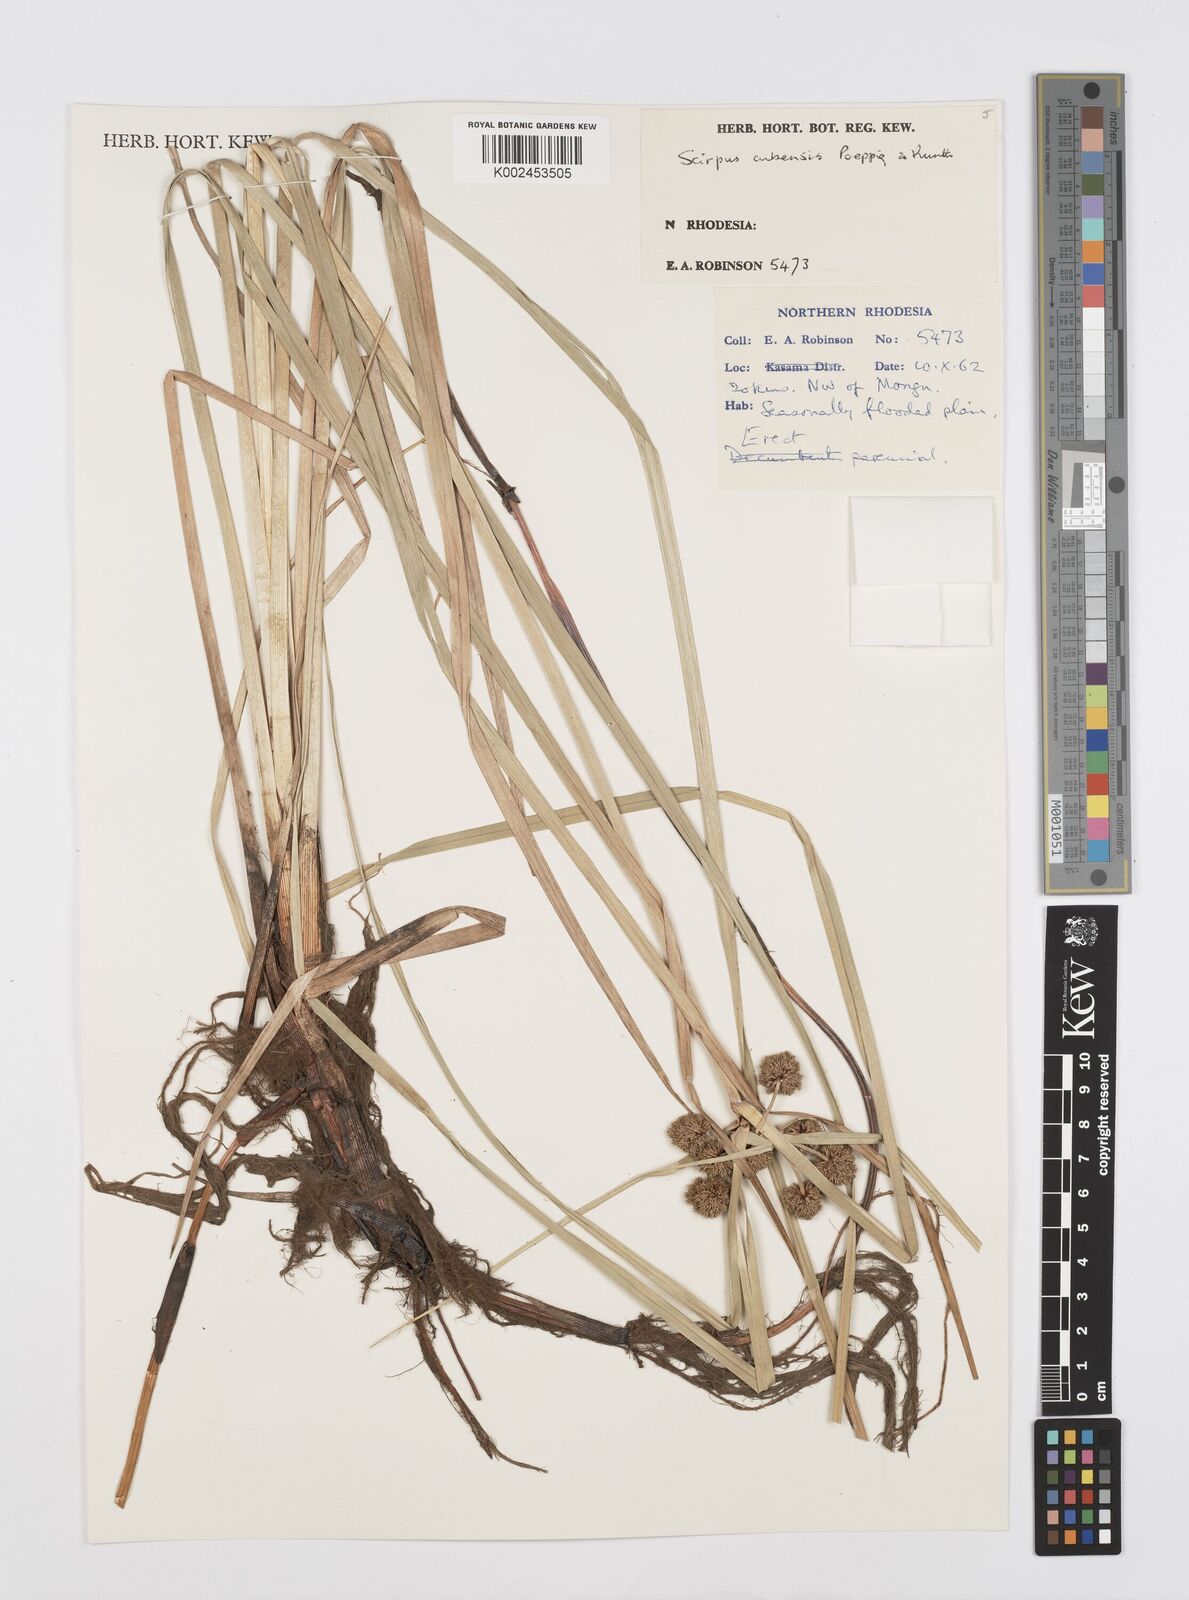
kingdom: Plantae
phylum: Tracheophyta
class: Liliopsida
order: Poales
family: Cyperaceae
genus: Cyperus
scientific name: Cyperus elegans
